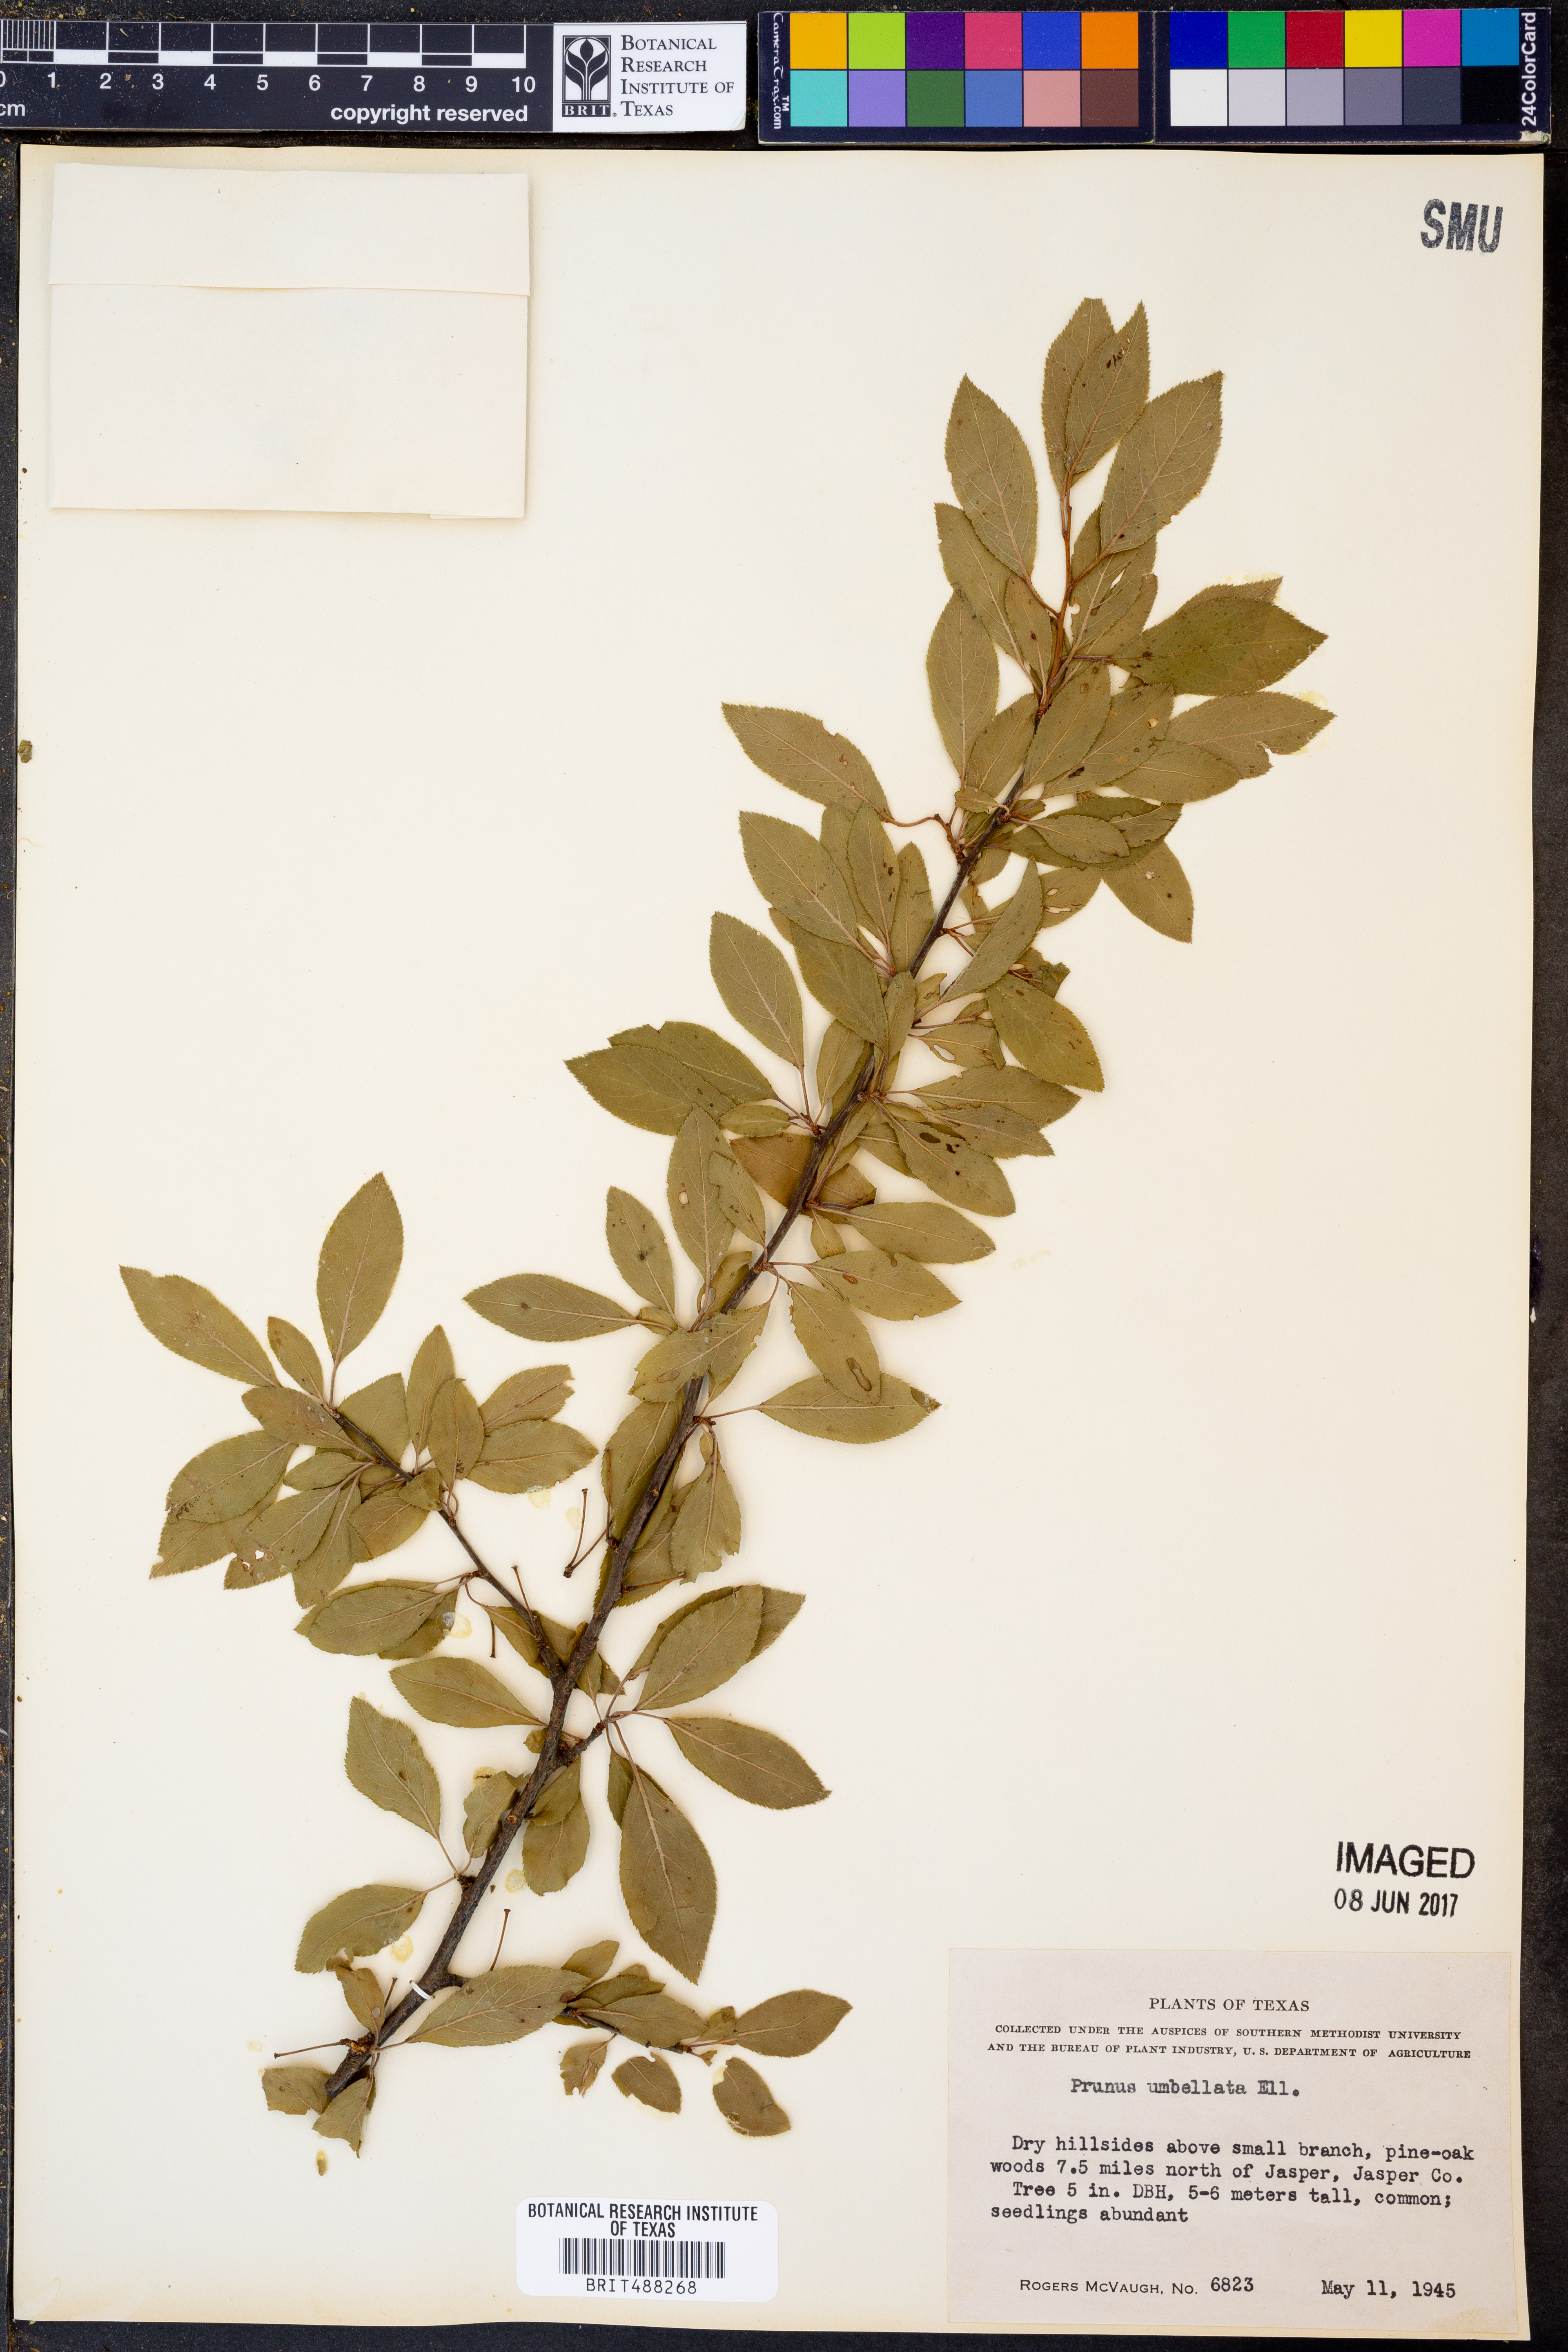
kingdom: Plantae
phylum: Tracheophyta
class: Magnoliopsida
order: Rosales
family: Rosaceae
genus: Prunus
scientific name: Prunus umbellata
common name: Allegheny plum
